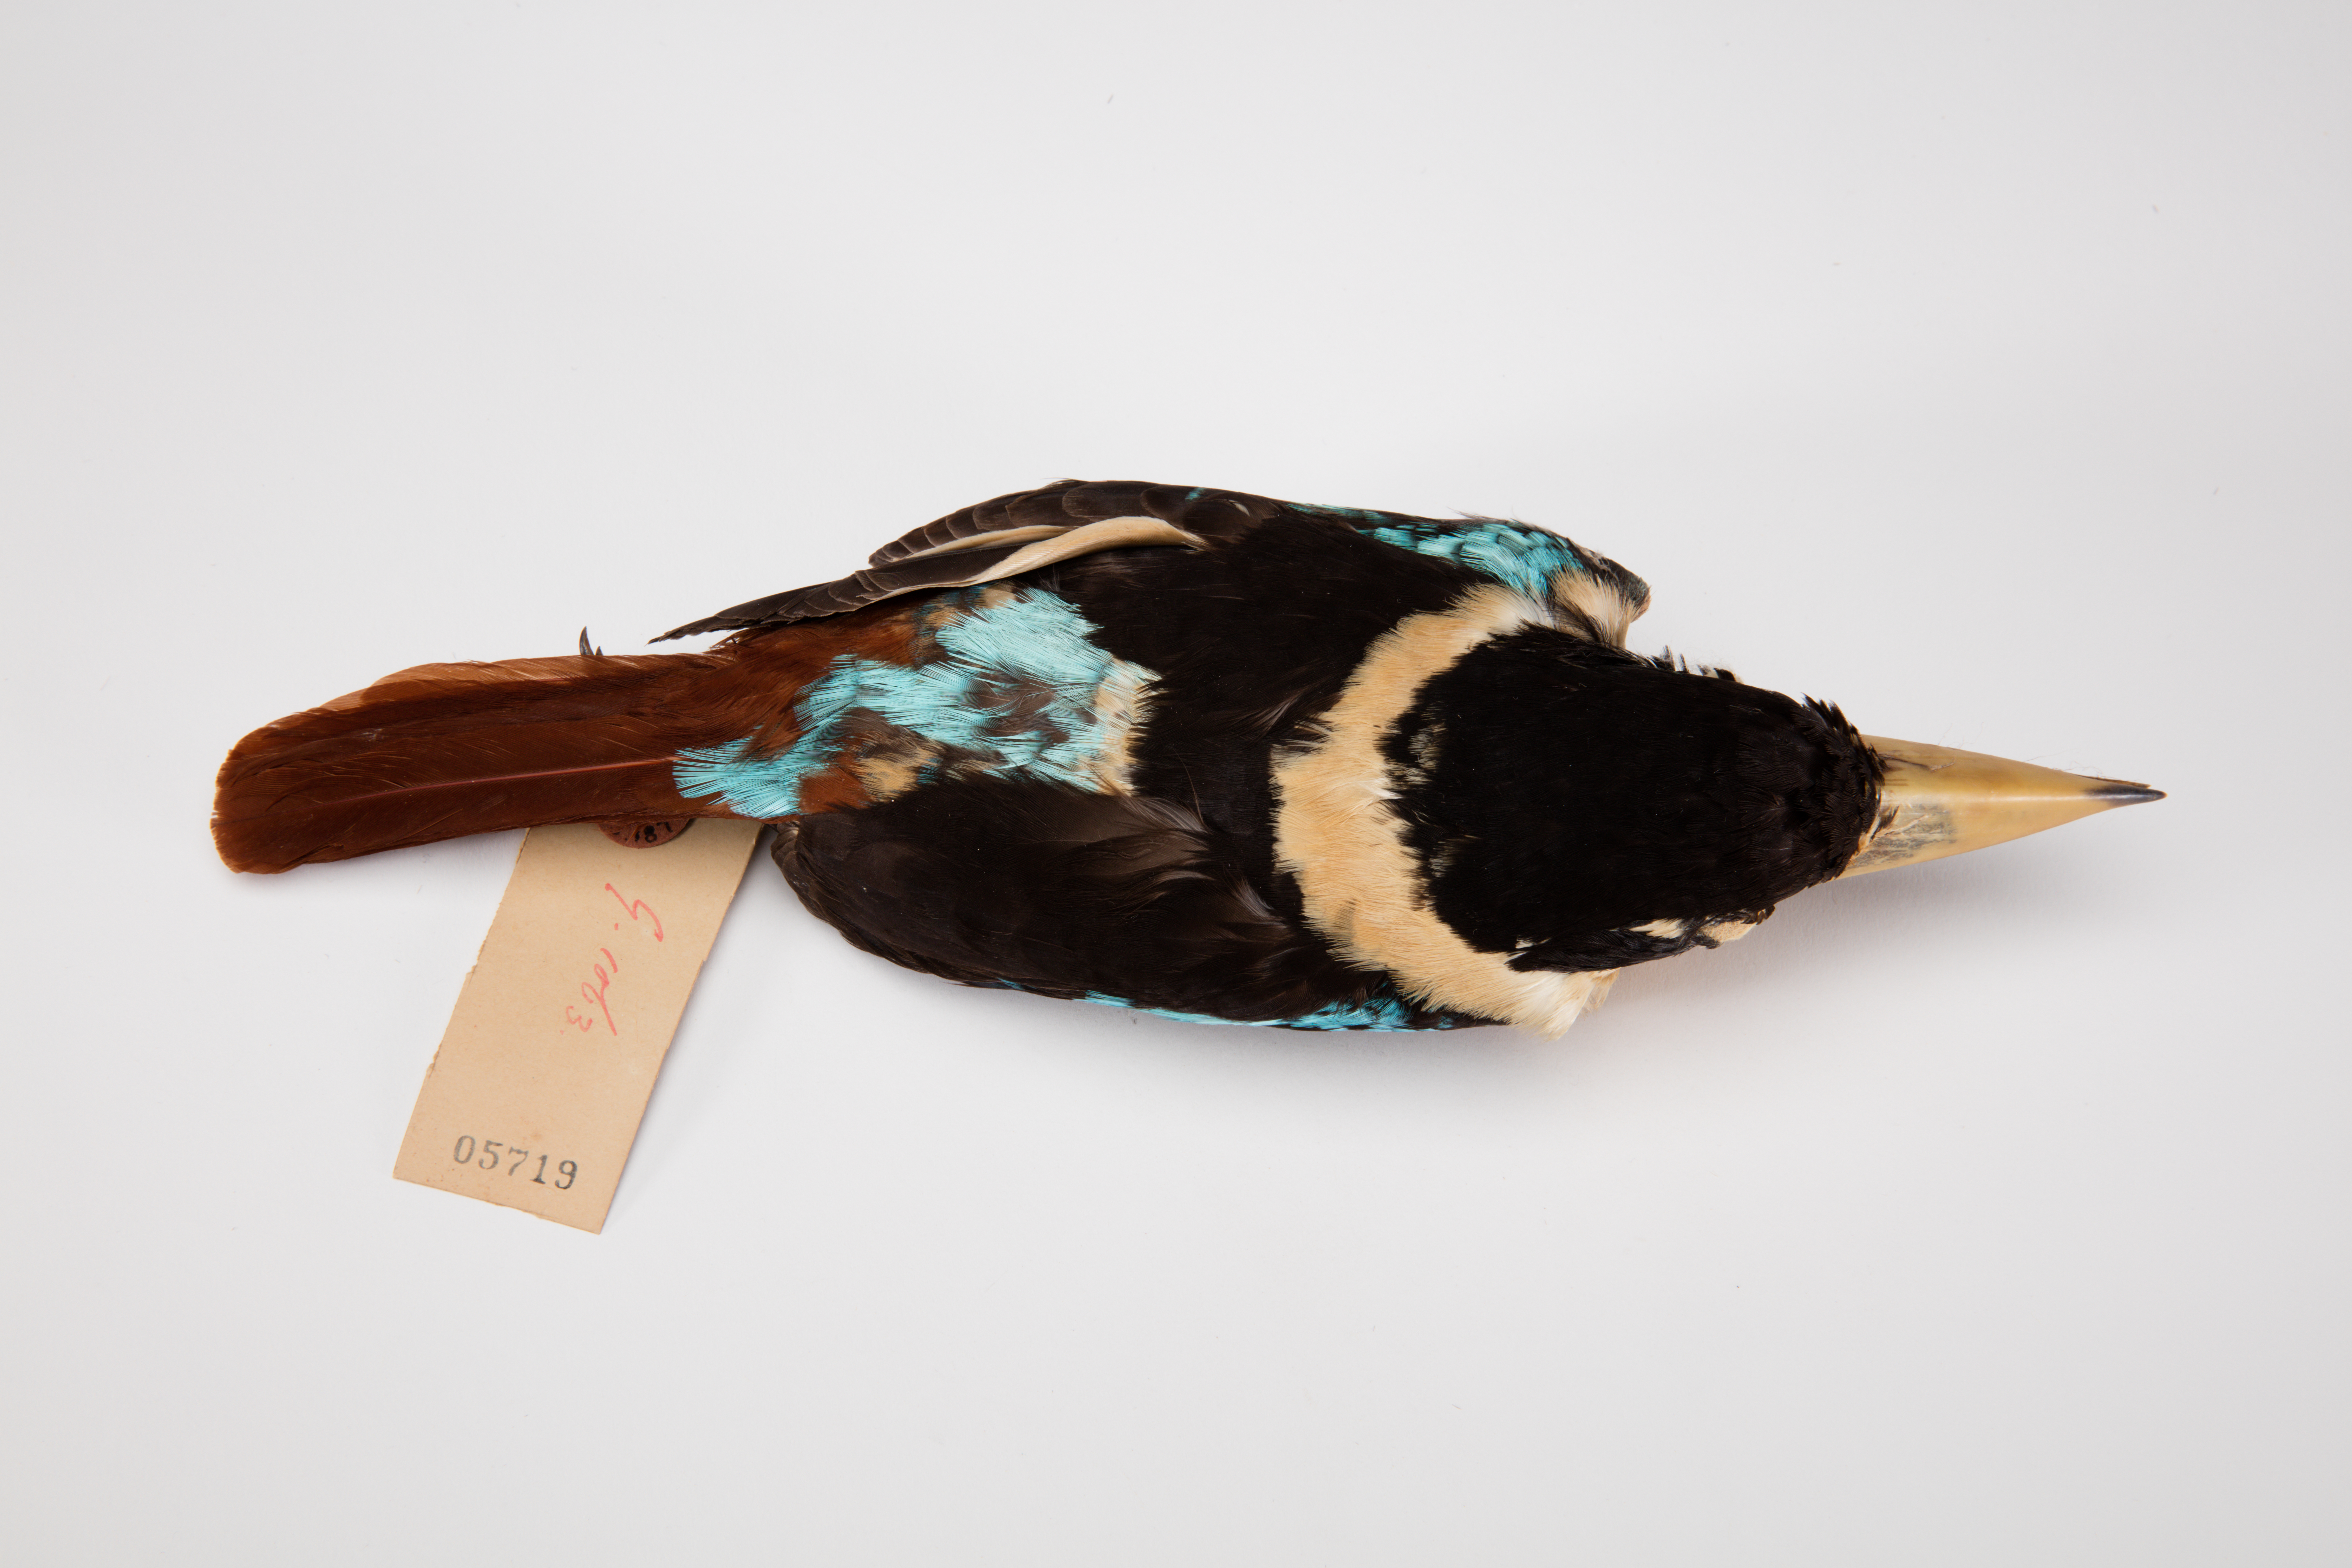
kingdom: Animalia
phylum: Chordata
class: Aves
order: Coraciiformes
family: Alcedinidae
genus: Dacelo
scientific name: Dacelo gaudichaud
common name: Rufous-bellied kookaburra
